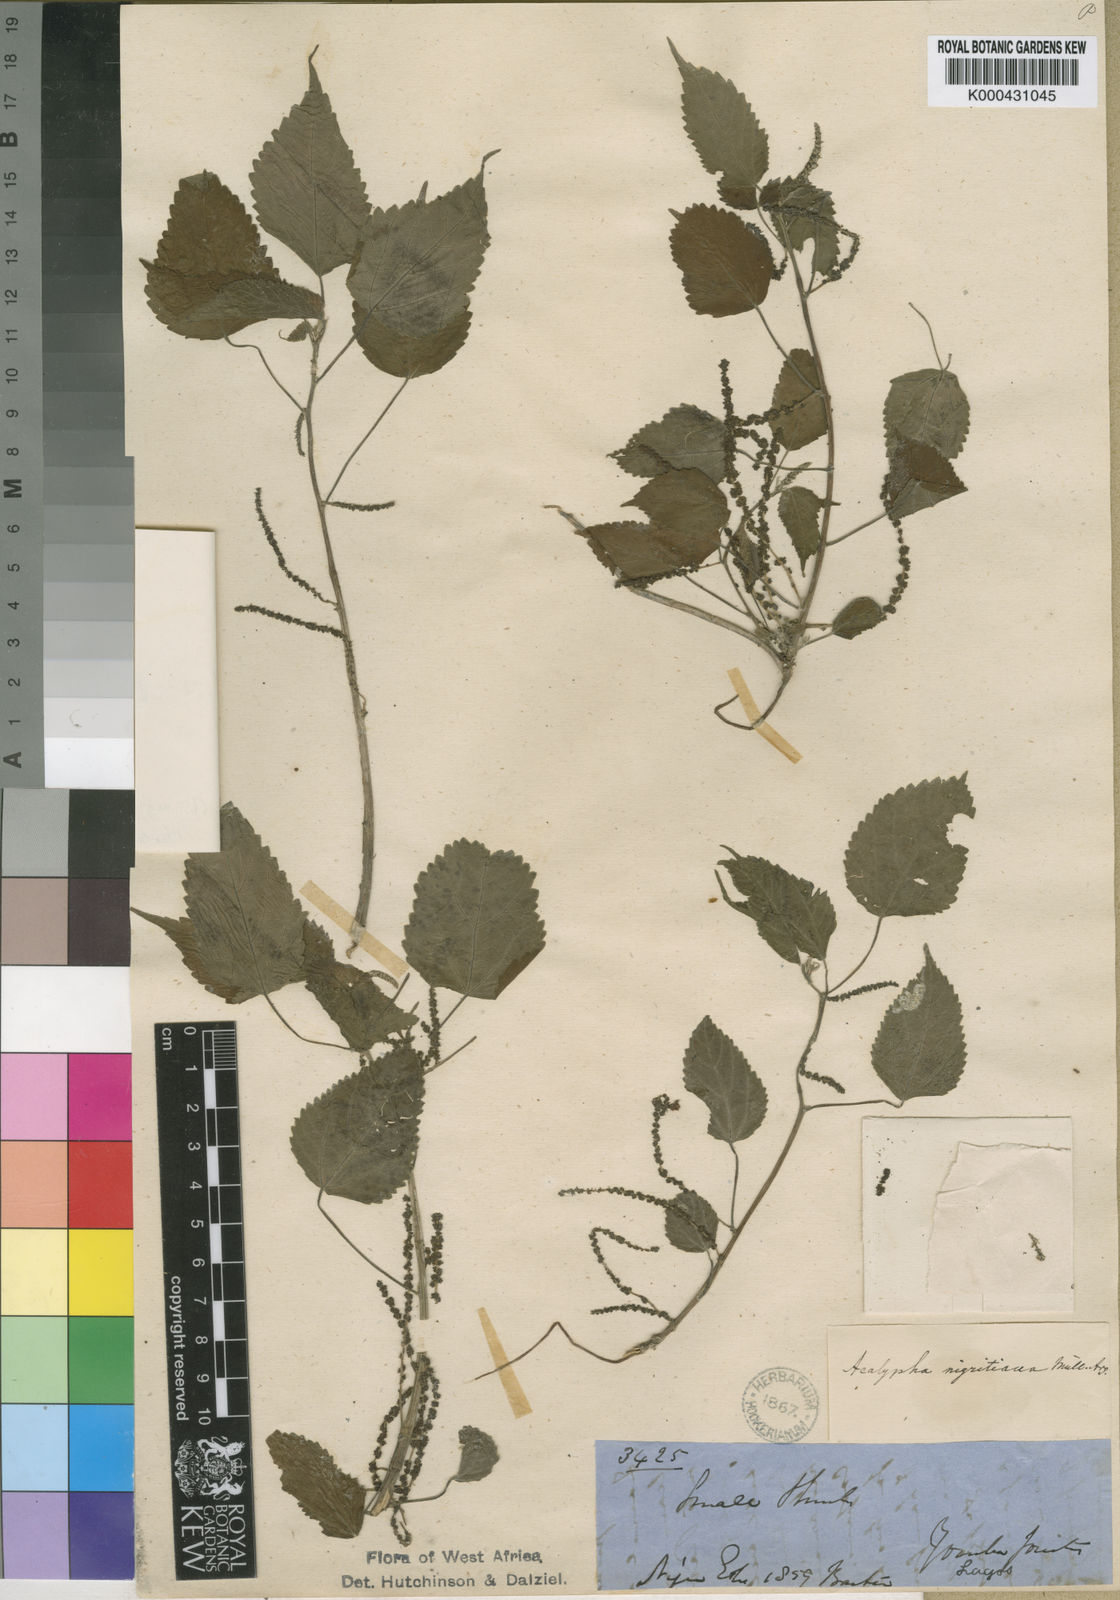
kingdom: Plantae
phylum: Tracheophyta
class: Magnoliopsida
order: Malpighiales
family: Euphorbiaceae
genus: Acalypha
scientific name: Acalypha ornata
